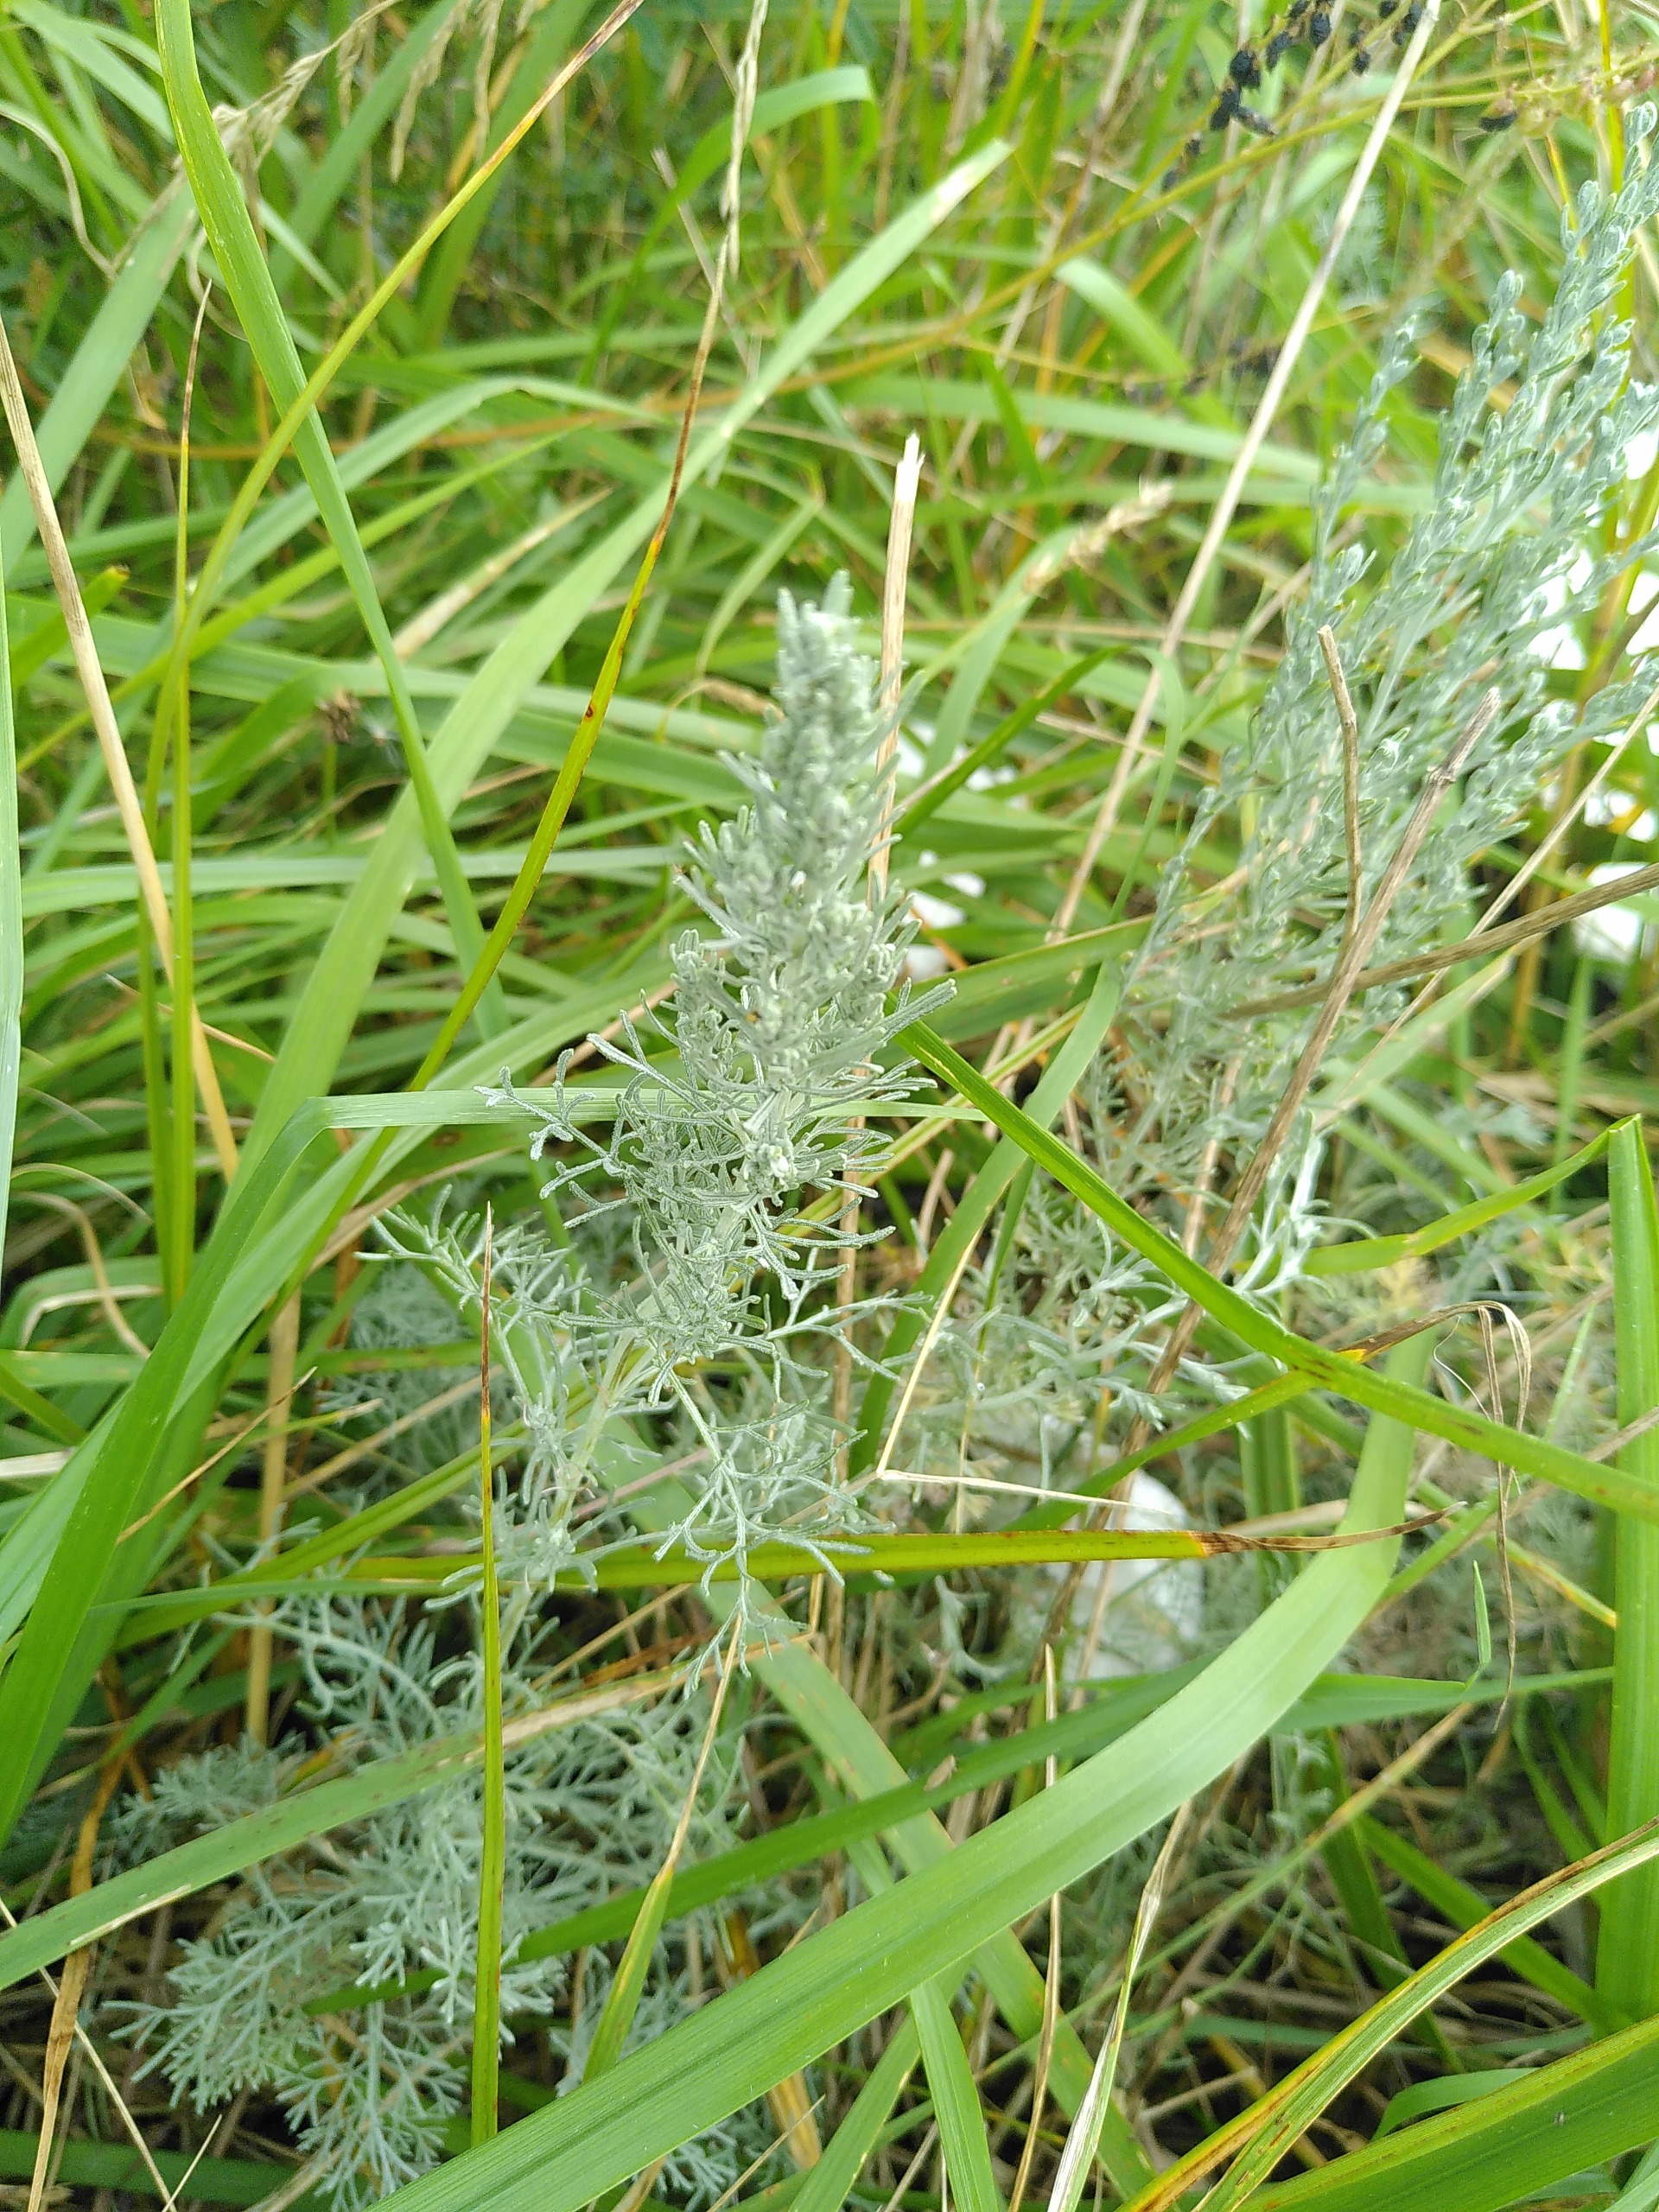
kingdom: Plantae
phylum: Tracheophyta
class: Magnoliopsida
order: Asterales
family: Asteraceae
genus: Artemisia
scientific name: Artemisia maritima
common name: Strandmalurt
